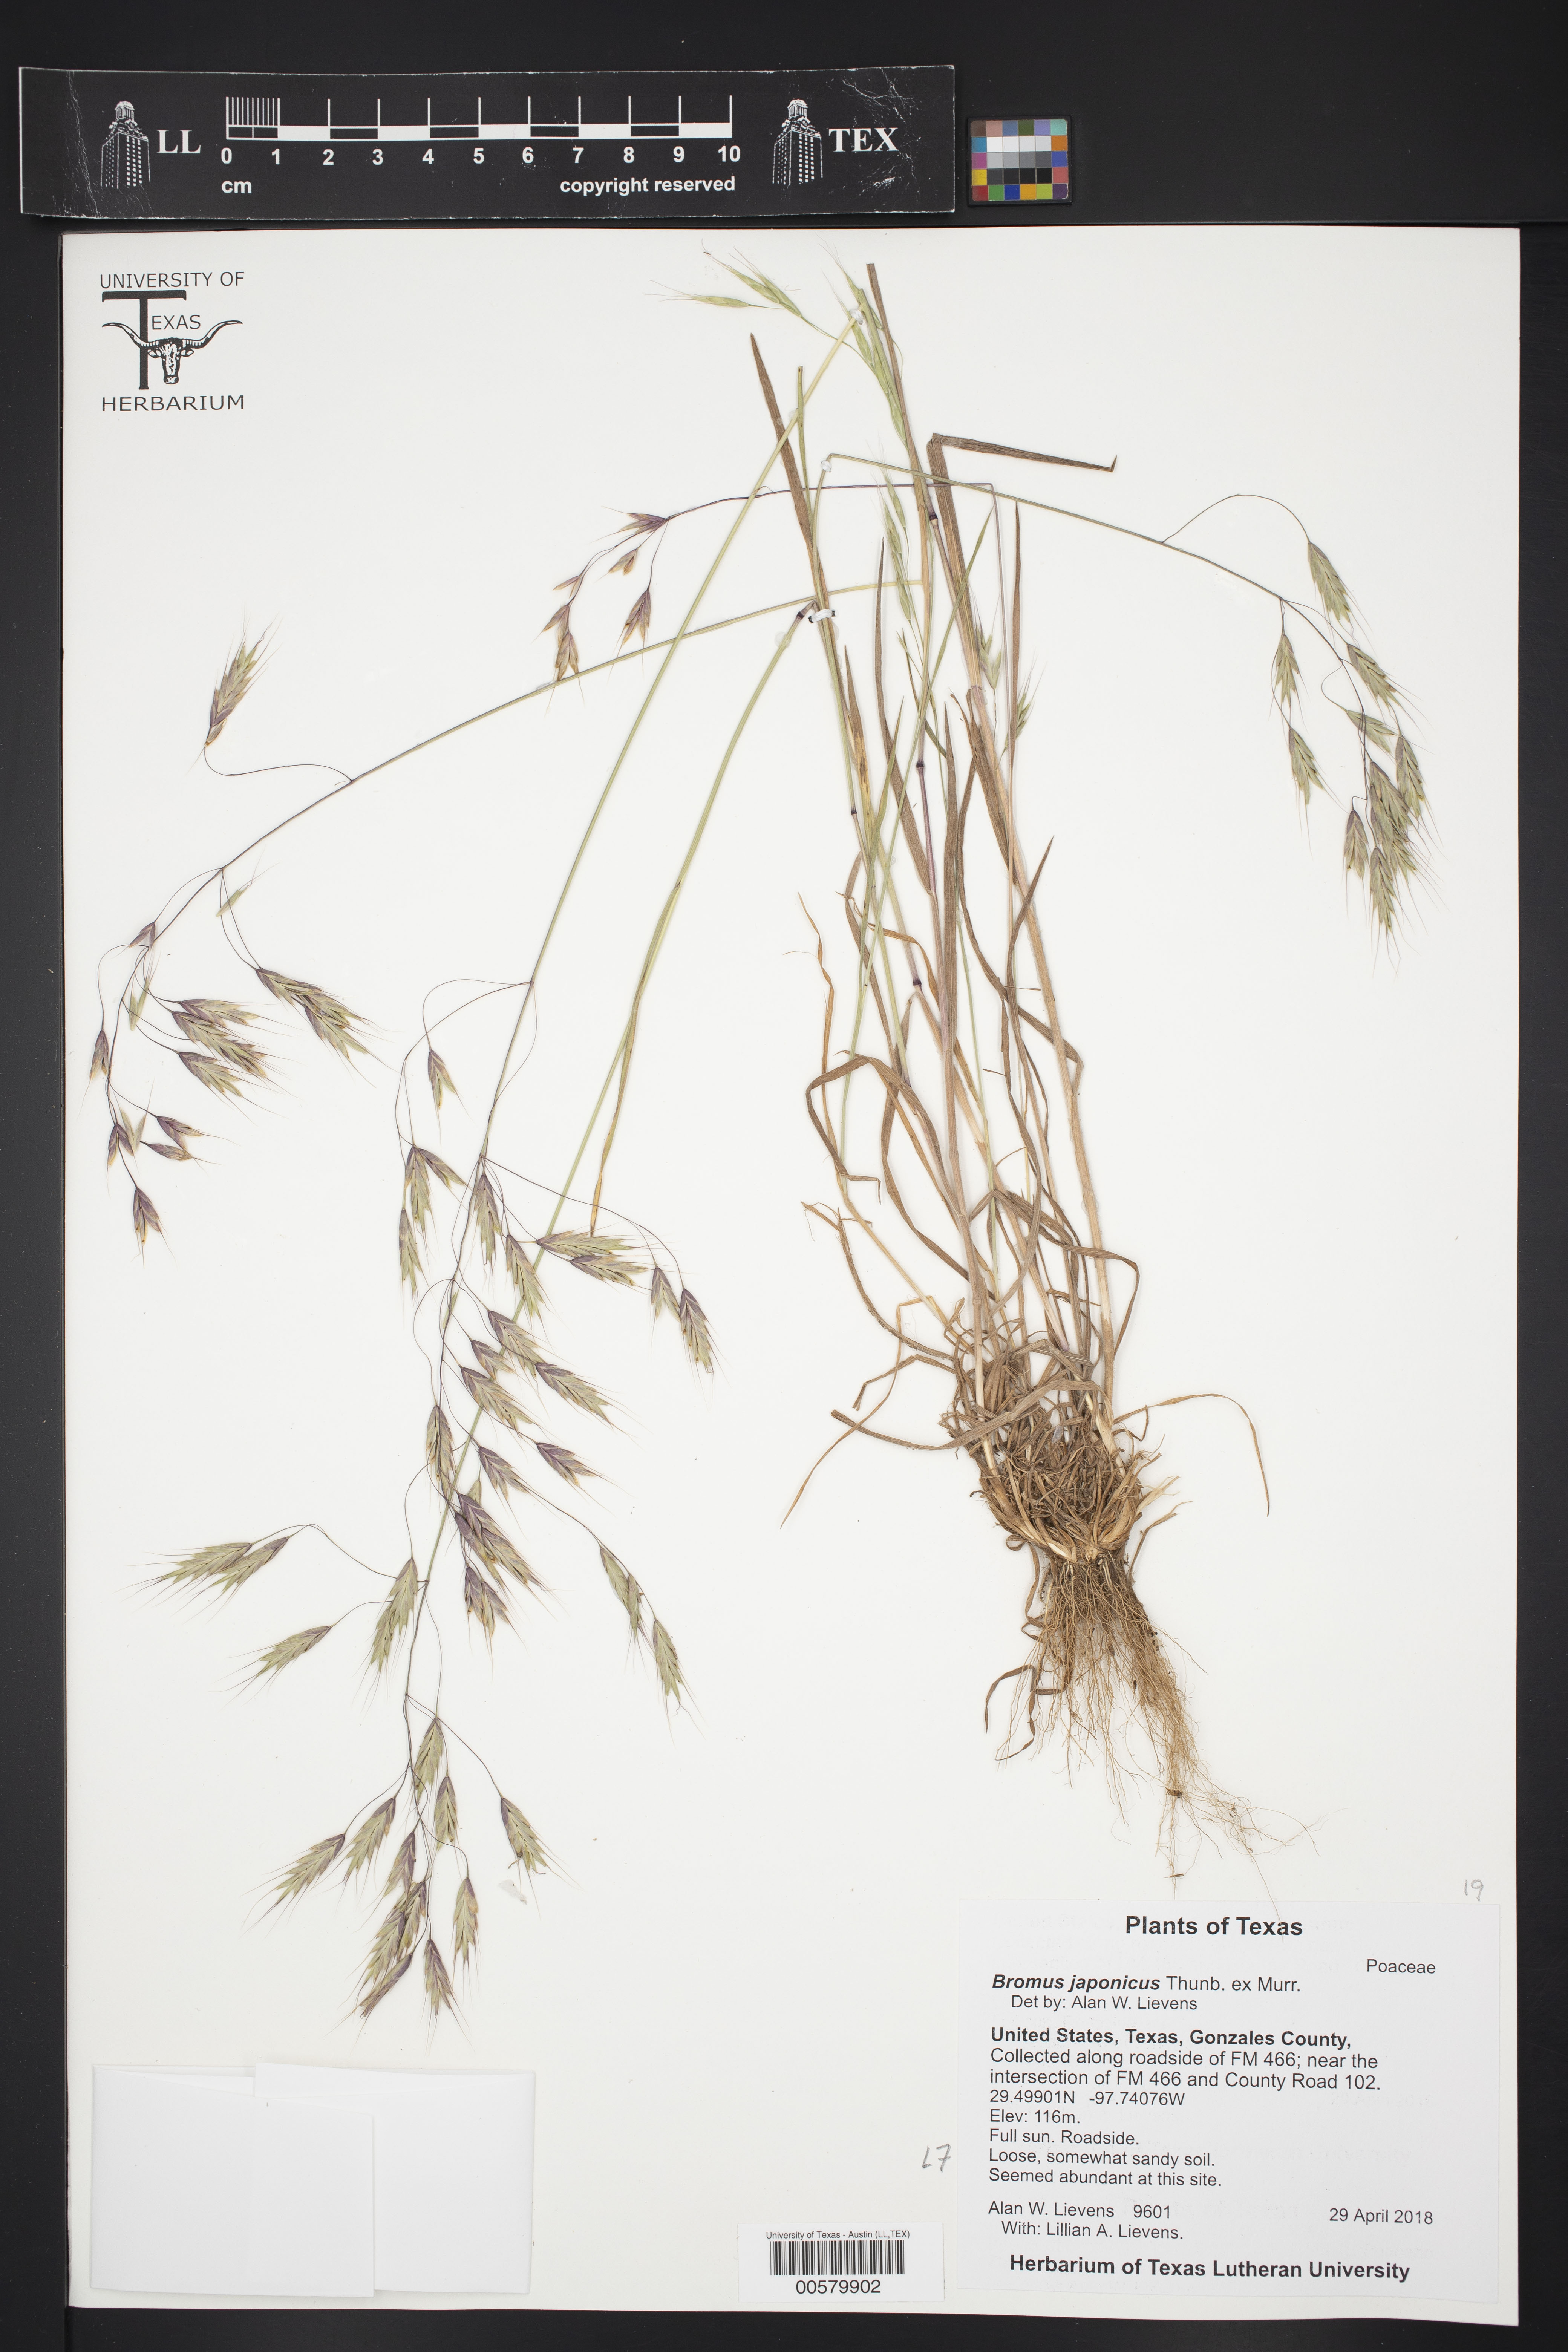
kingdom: Plantae
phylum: Tracheophyta
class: Liliopsida
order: Poales
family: Poaceae
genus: Bromus
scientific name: Bromus japonicus
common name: Japanese brome
